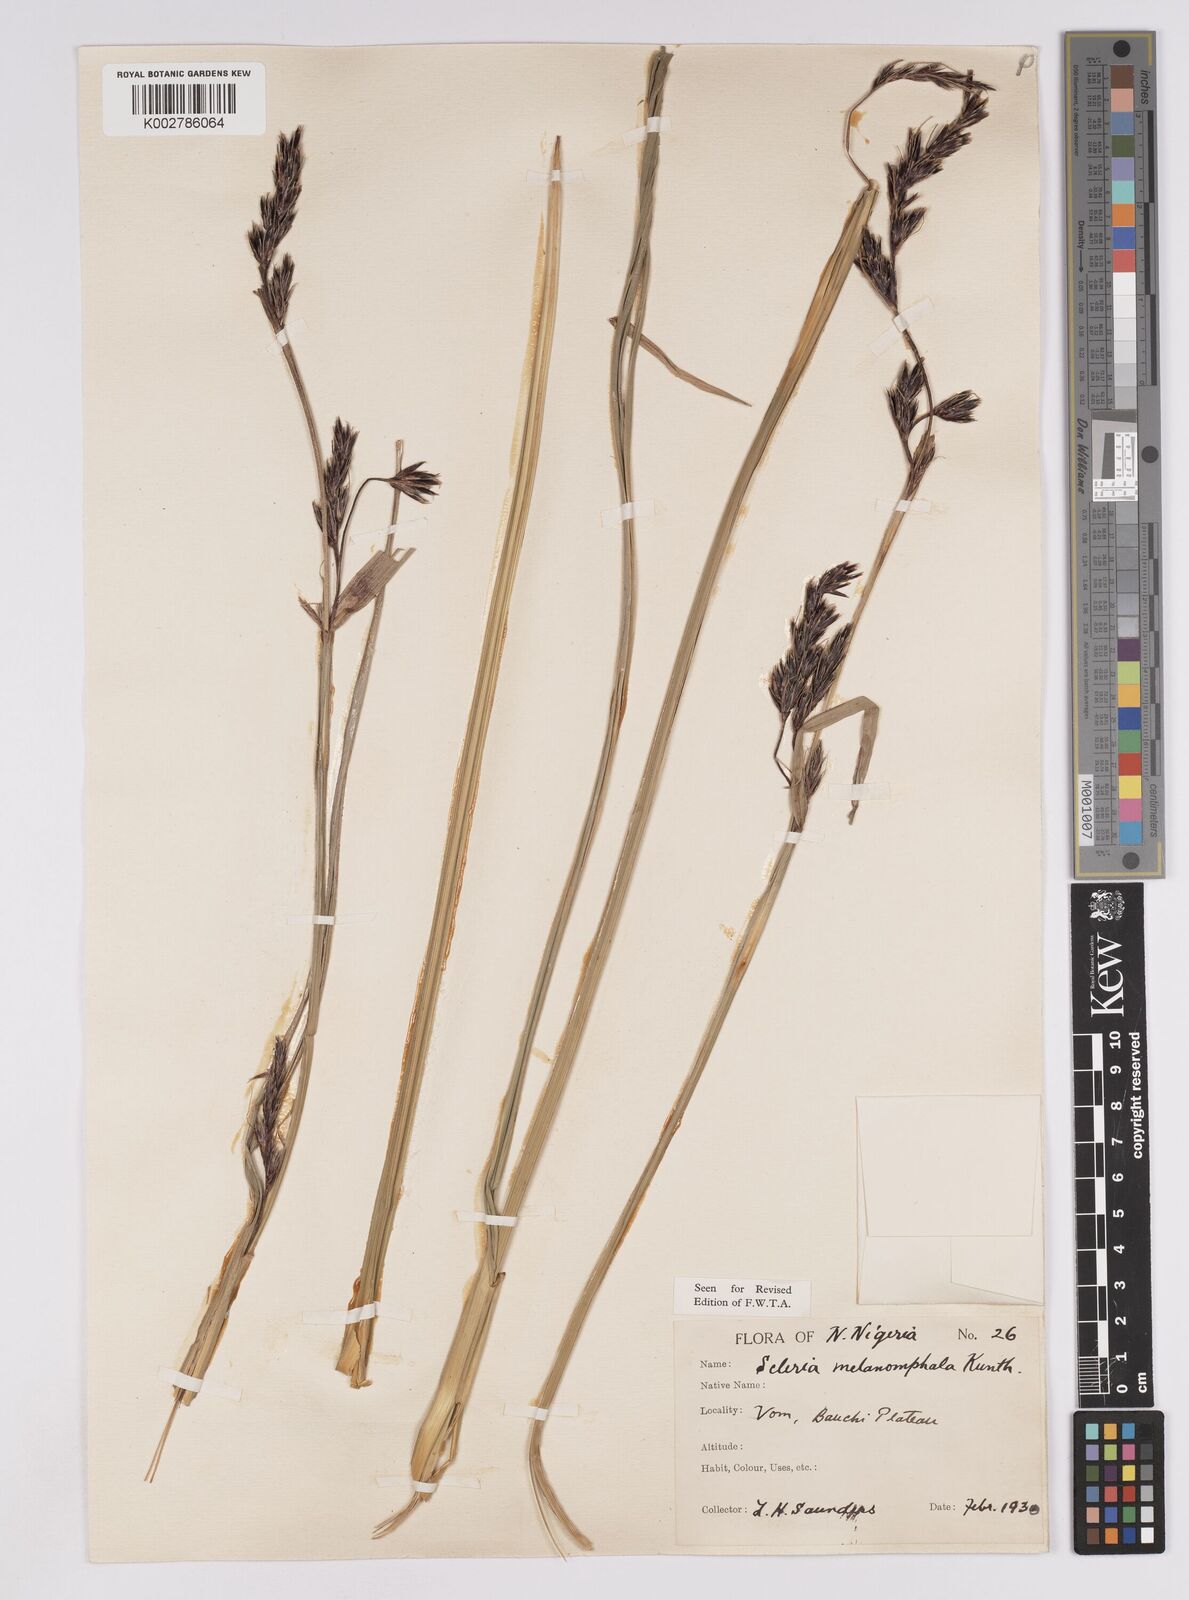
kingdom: Plantae
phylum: Tracheophyta
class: Liliopsida
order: Poales
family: Cyperaceae
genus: Scleria
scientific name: Scleria melanomphala
